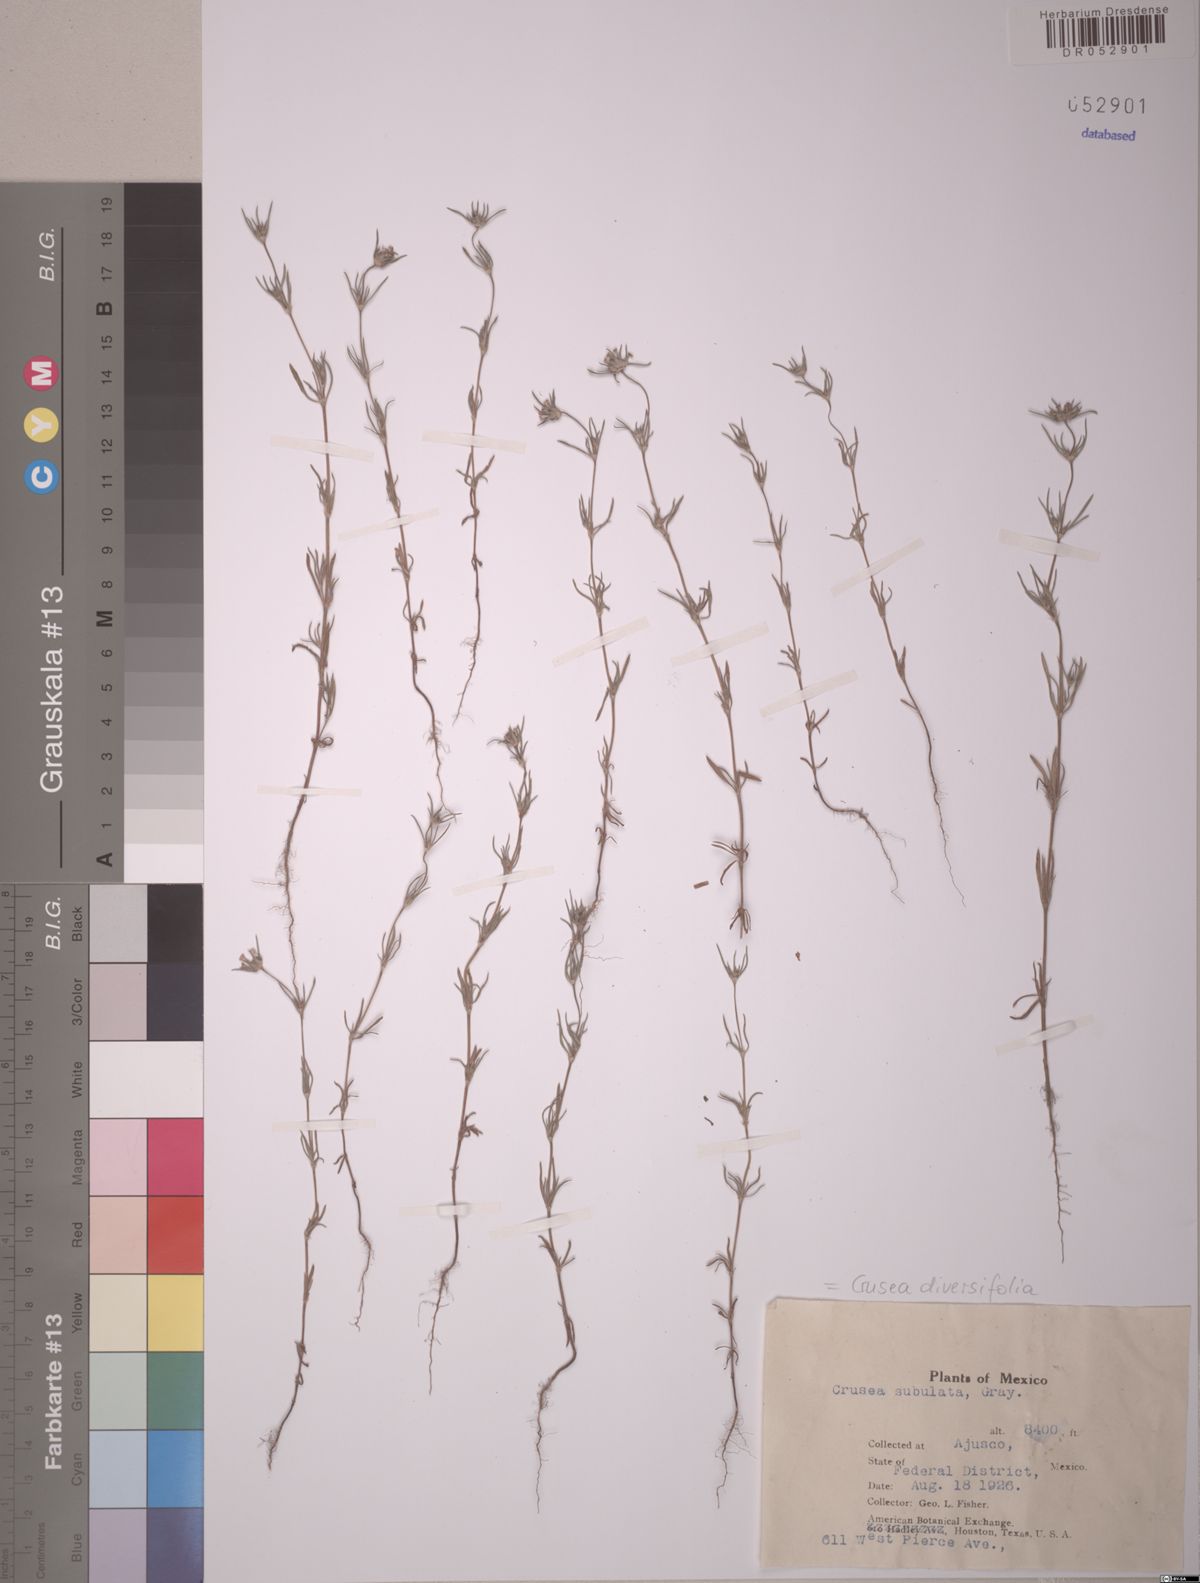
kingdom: Plantae
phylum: Tracheophyta
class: Magnoliopsida
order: Gentianales
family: Rubiaceae
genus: Crusea
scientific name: Crusea simplex
